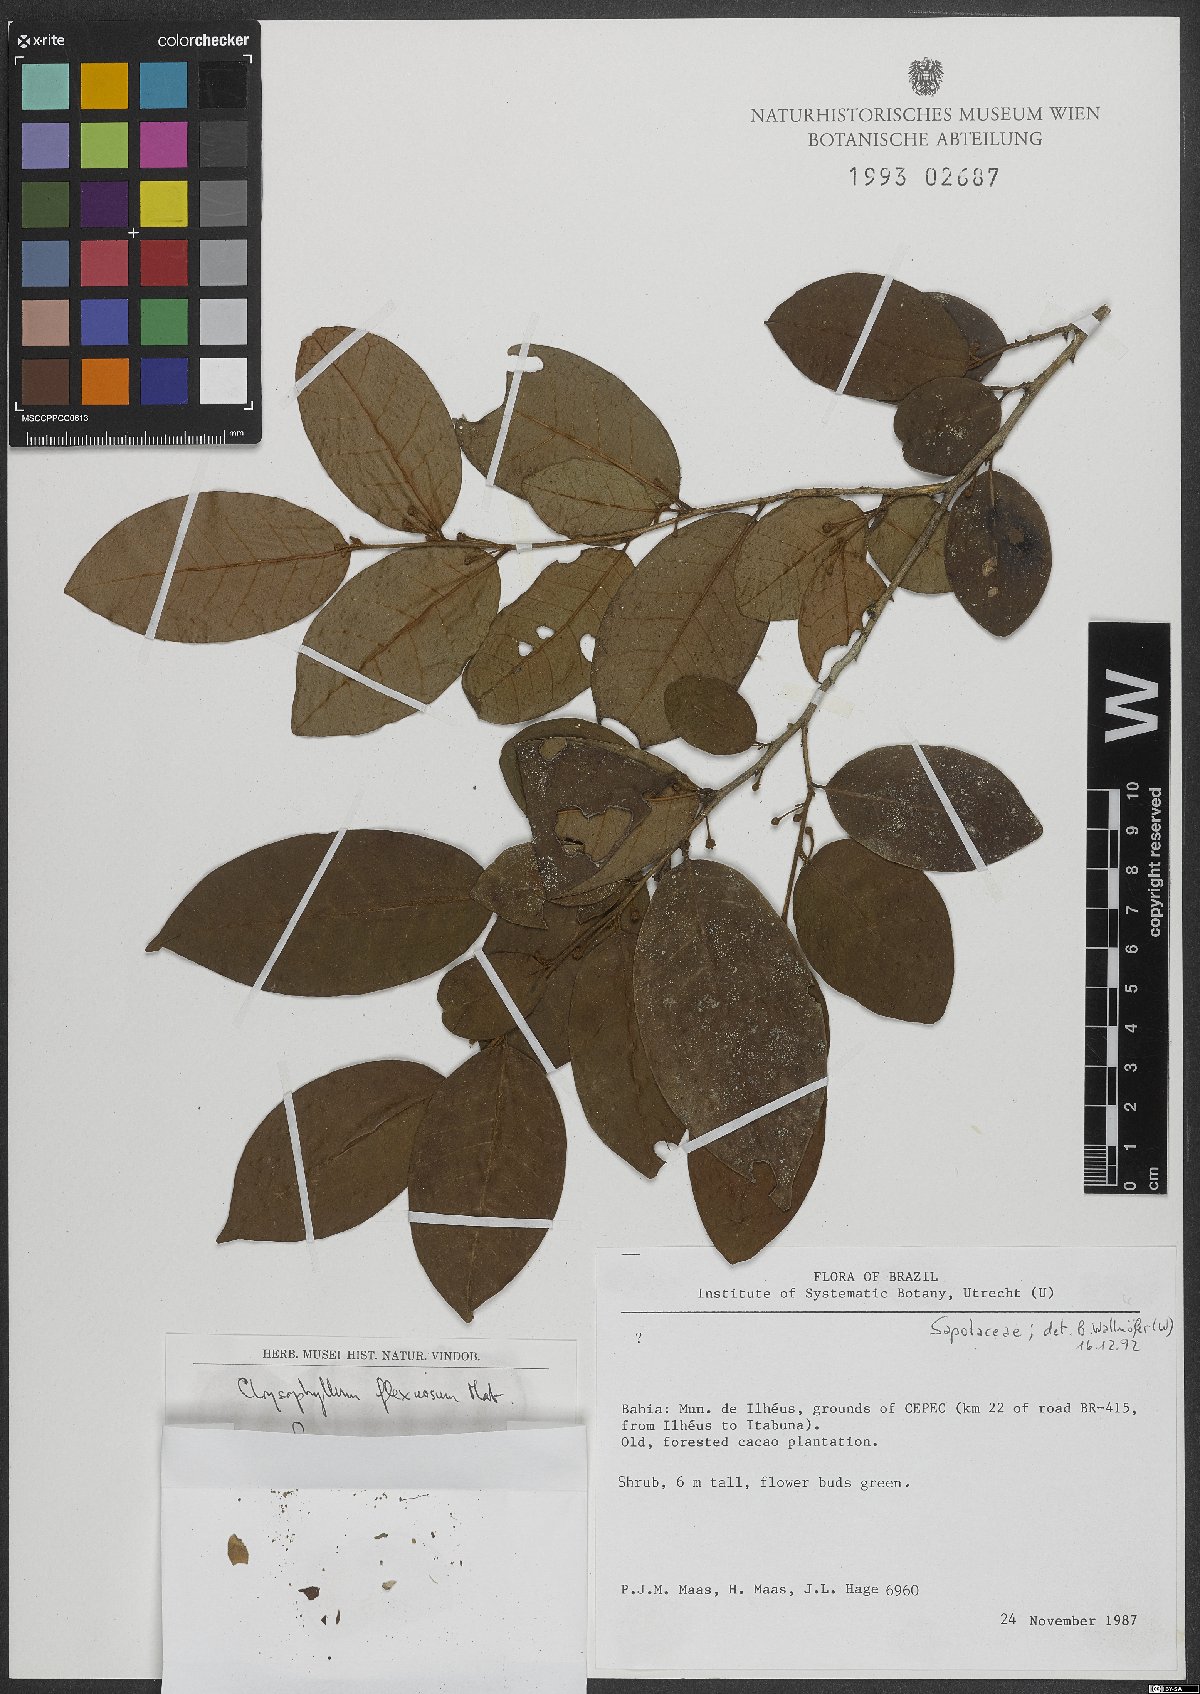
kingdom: Plantae
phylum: Tracheophyta
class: Magnoliopsida
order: Ericales
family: Sapotaceae
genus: Chrysophyllum
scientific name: Chrysophyllum flexuosum
